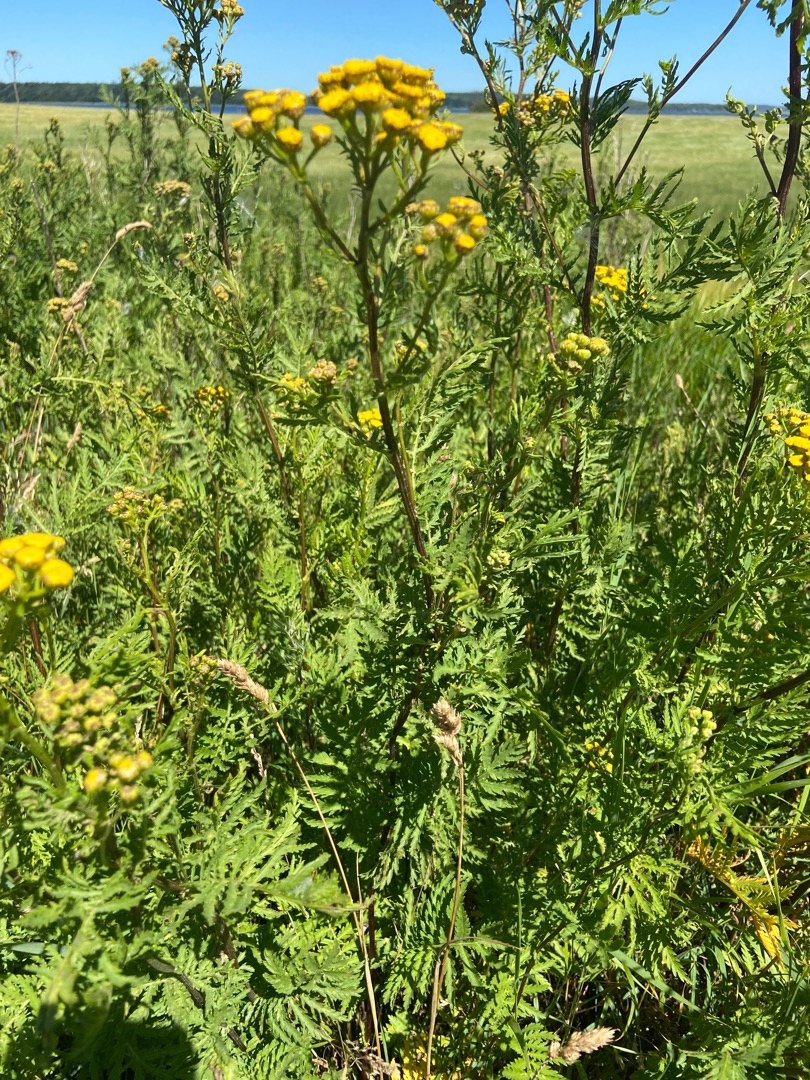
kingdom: Plantae
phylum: Tracheophyta
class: Magnoliopsida
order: Asterales
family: Asteraceae
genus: Tanacetum
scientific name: Tanacetum vulgare
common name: Rejnfan
